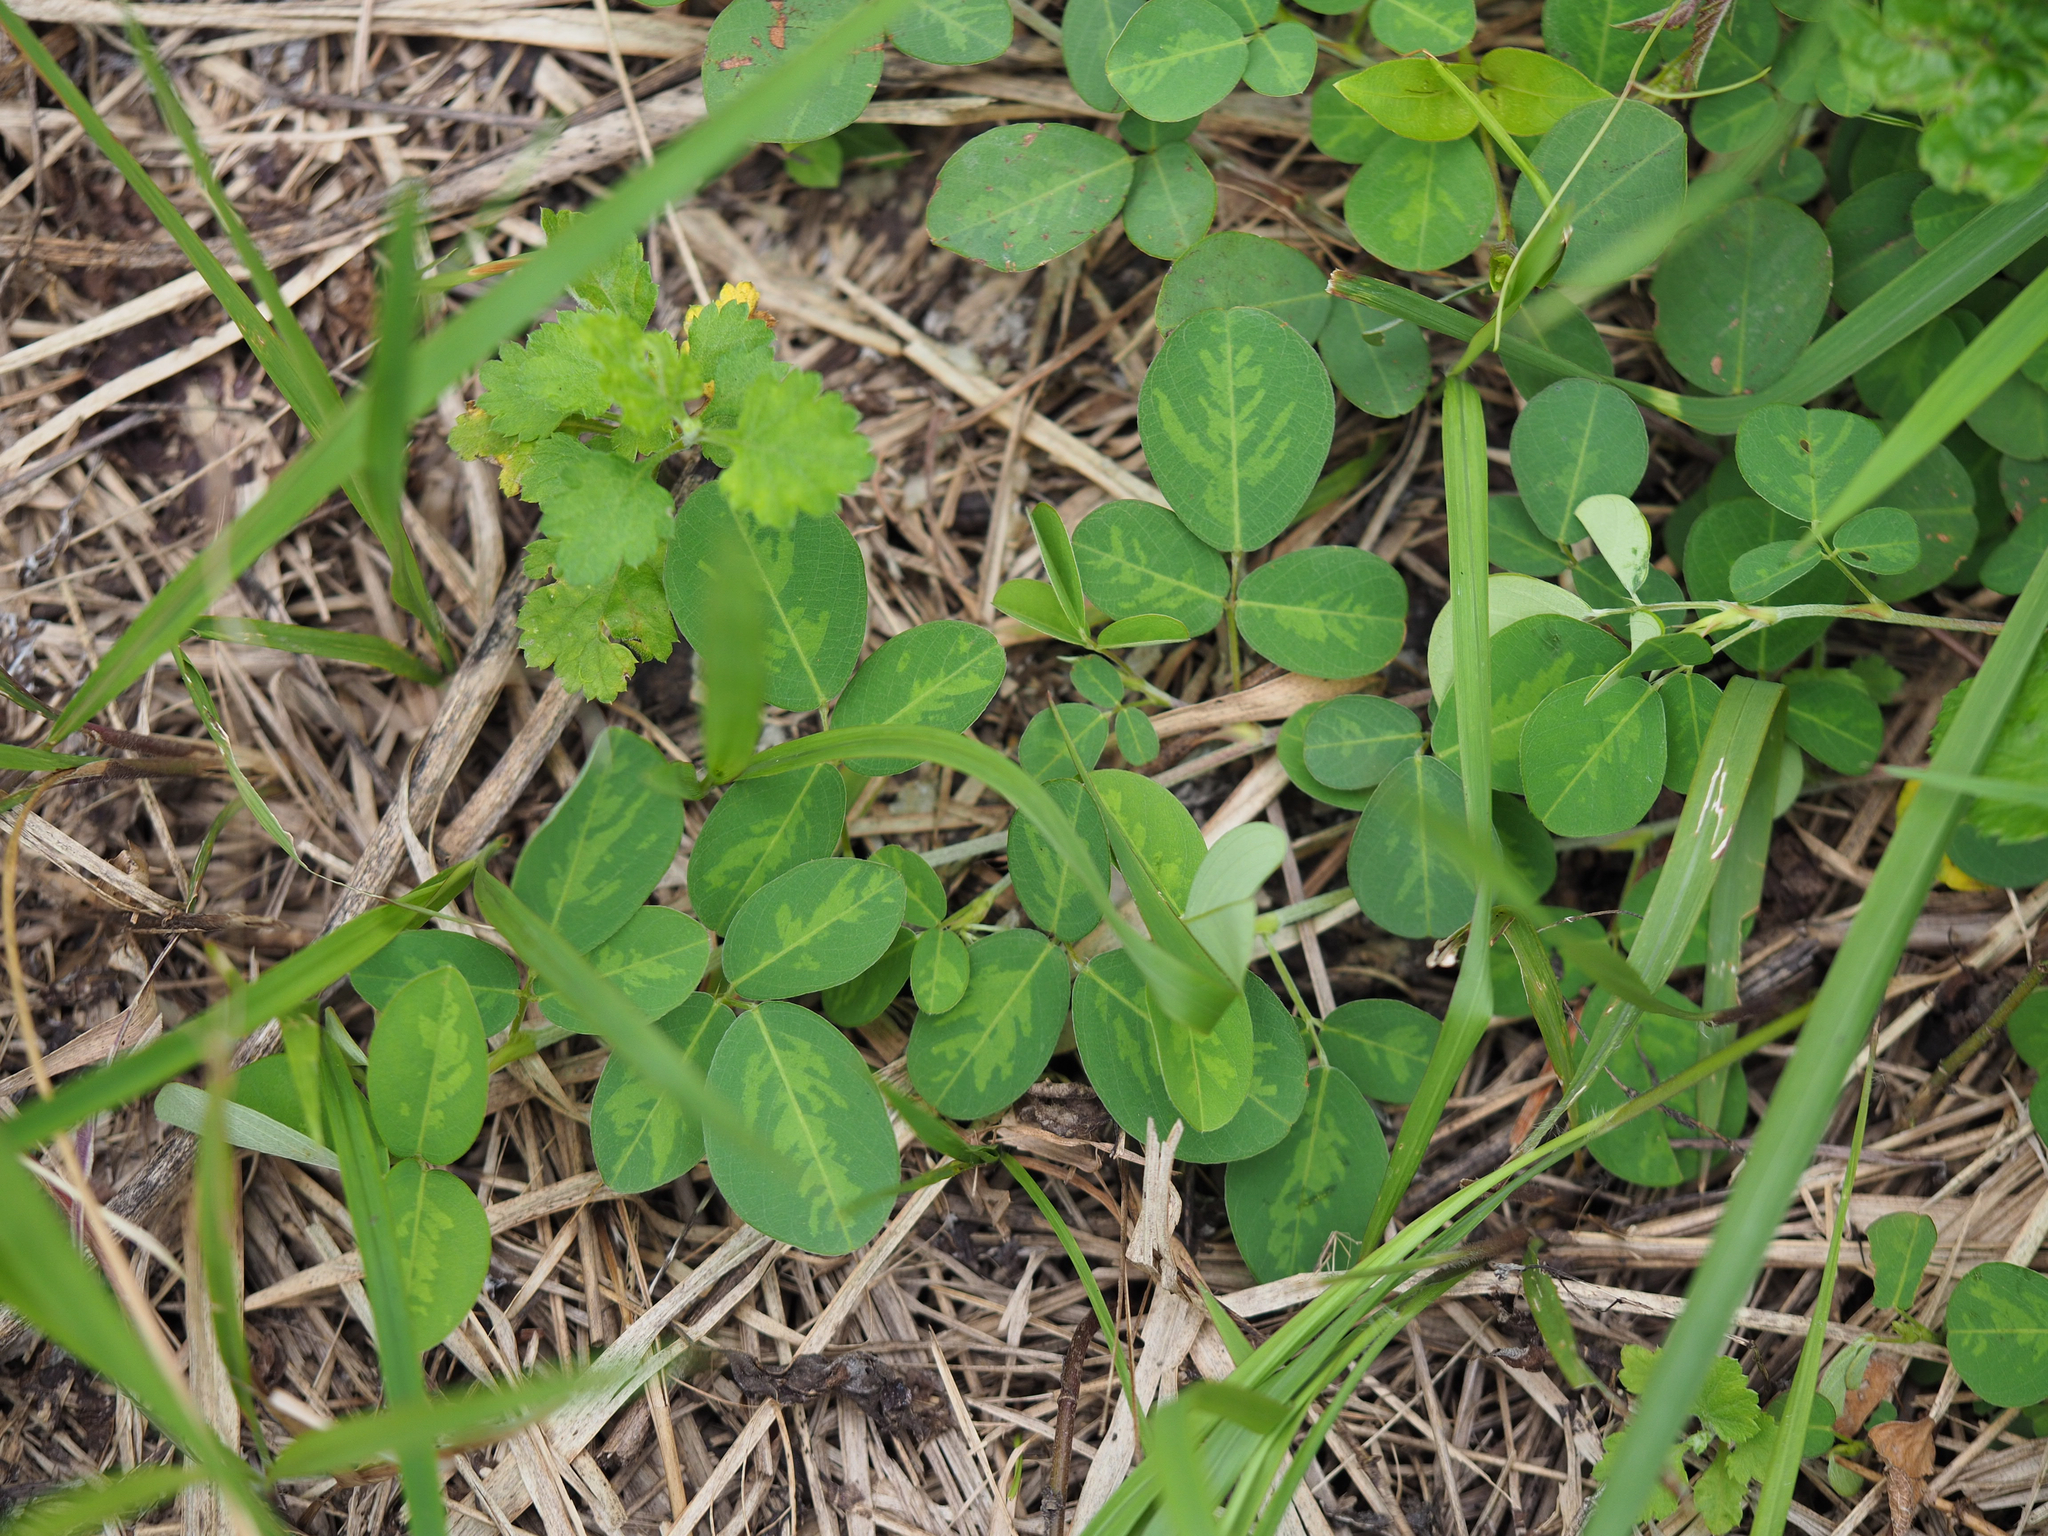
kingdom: Plantae
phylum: Tracheophyta
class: Magnoliopsida
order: Fabales
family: Fabaceae
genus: Grona
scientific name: Grona heterocarpos
